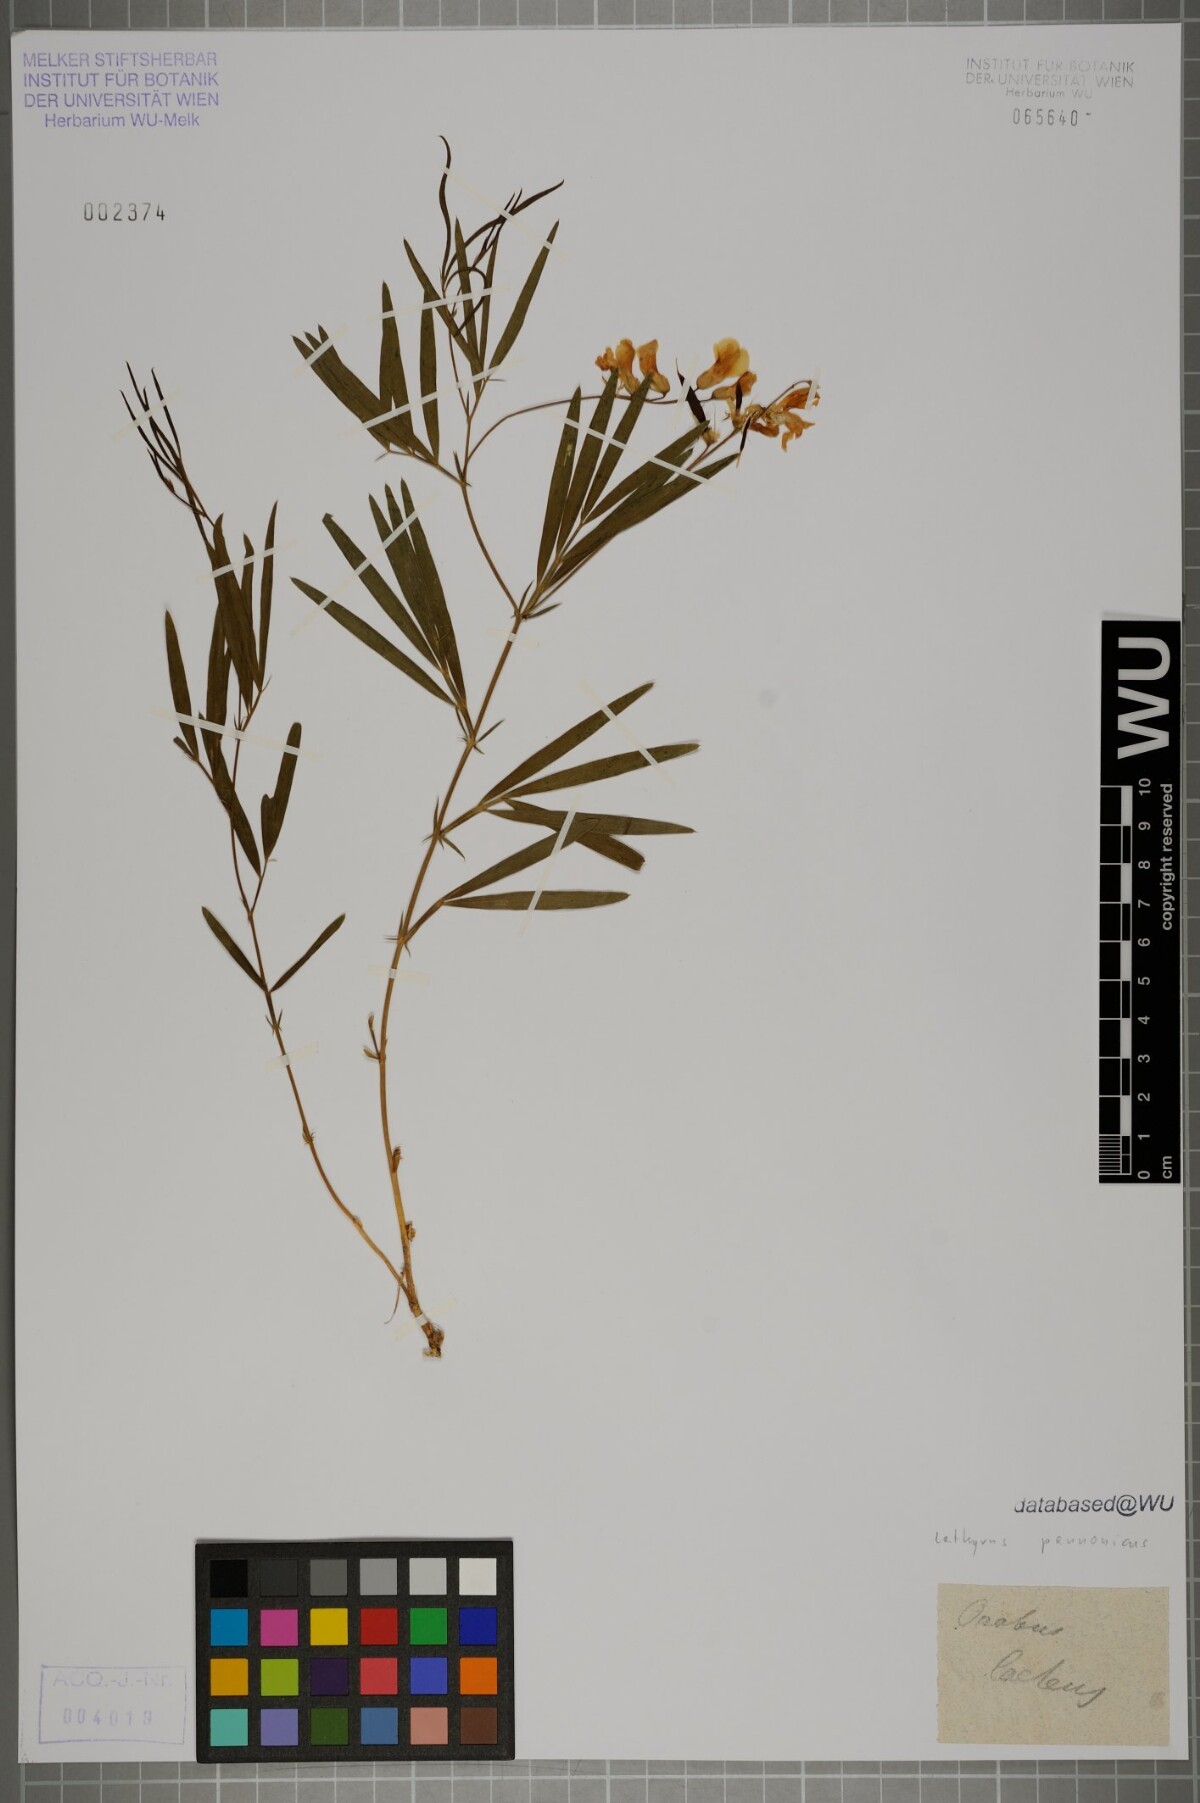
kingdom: Plantae
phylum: Tracheophyta
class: Magnoliopsida
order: Fabales
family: Fabaceae
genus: Lathyrus
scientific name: Lathyrus pannonicus
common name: Pea
